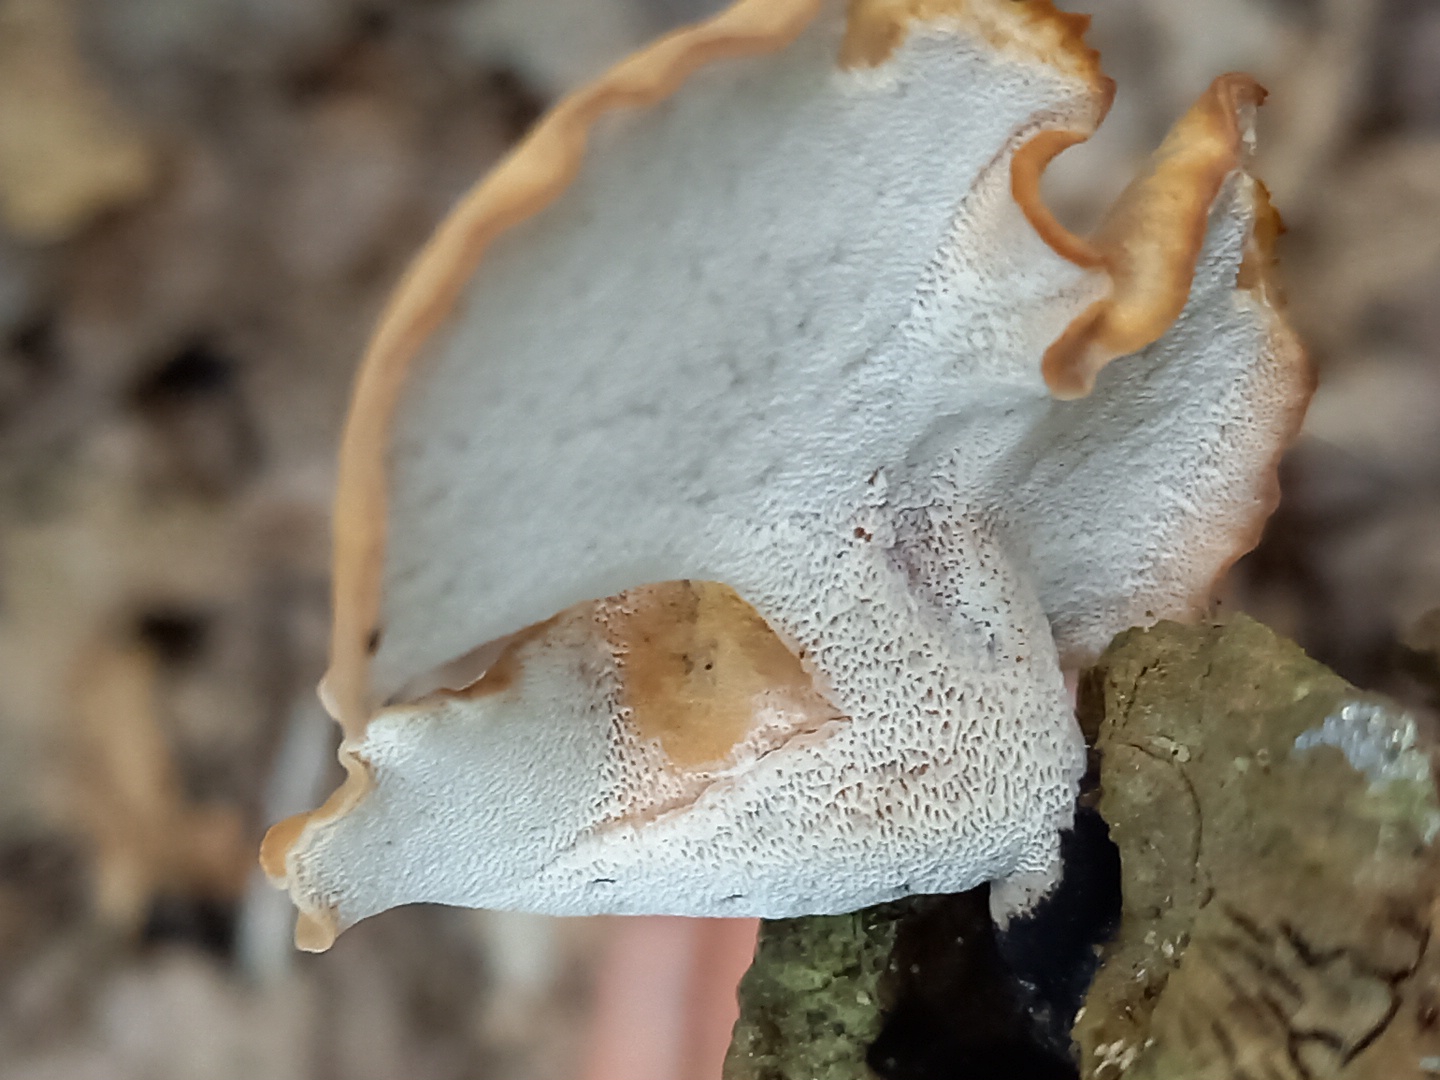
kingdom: Fungi
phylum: Basidiomycota
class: Agaricomycetes
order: Polyporales
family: Polyporaceae
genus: Cerioporus
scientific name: Cerioporus varius
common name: foranderlig stilkporesvamp
